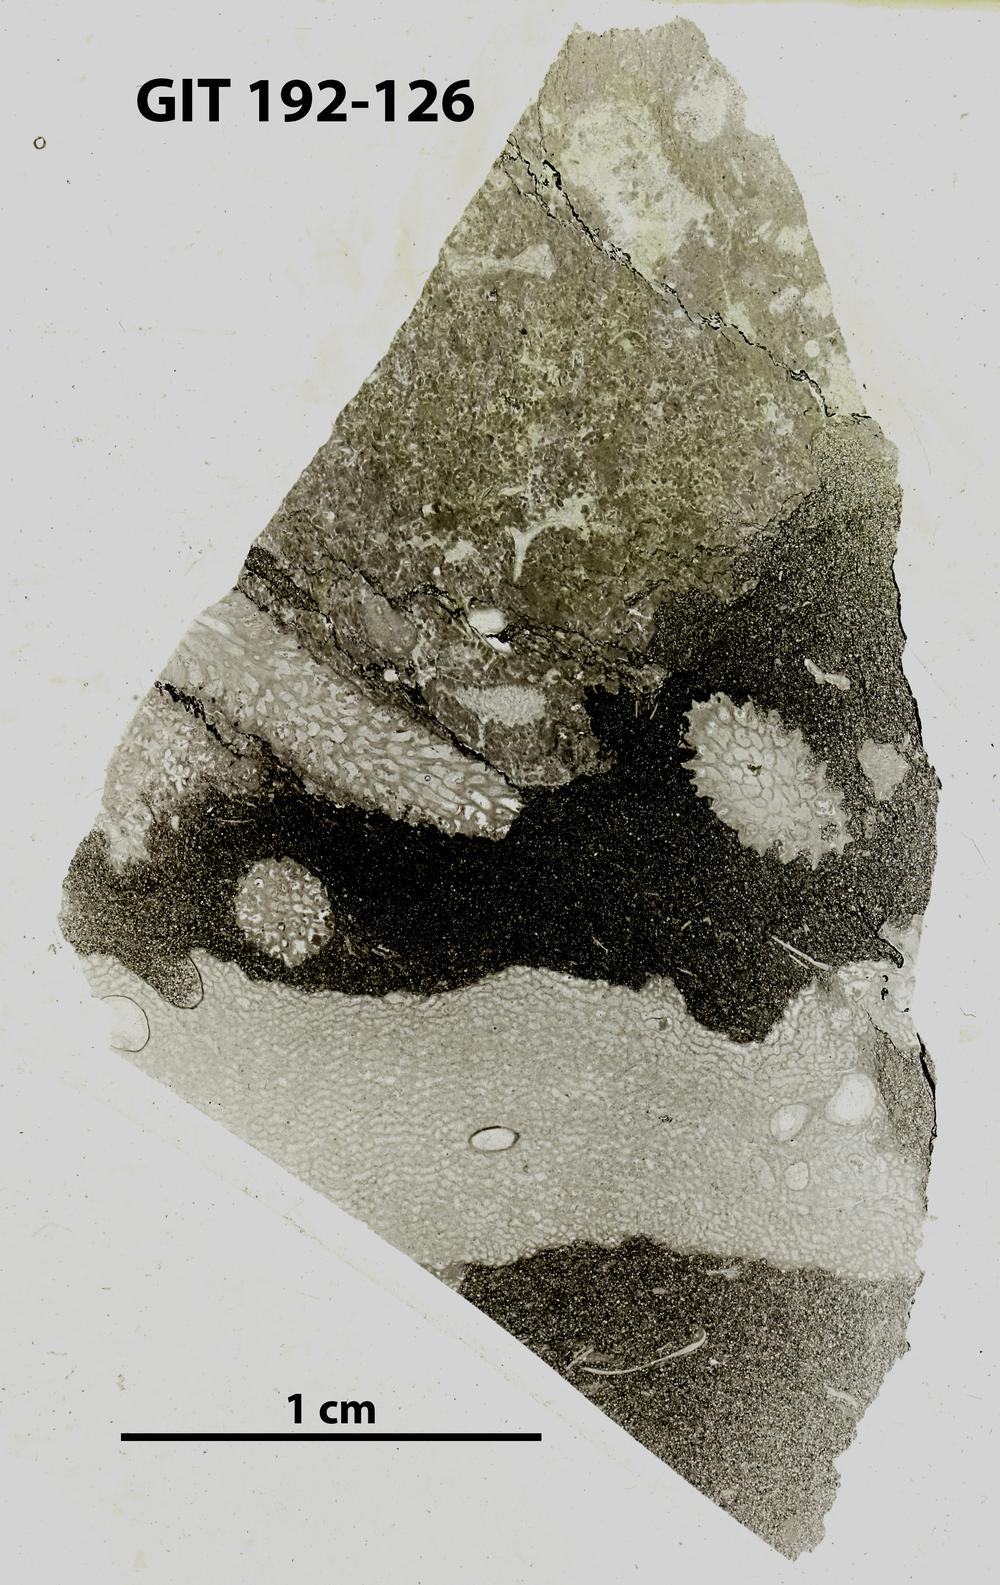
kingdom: Animalia
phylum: Porifera
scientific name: Porifera
